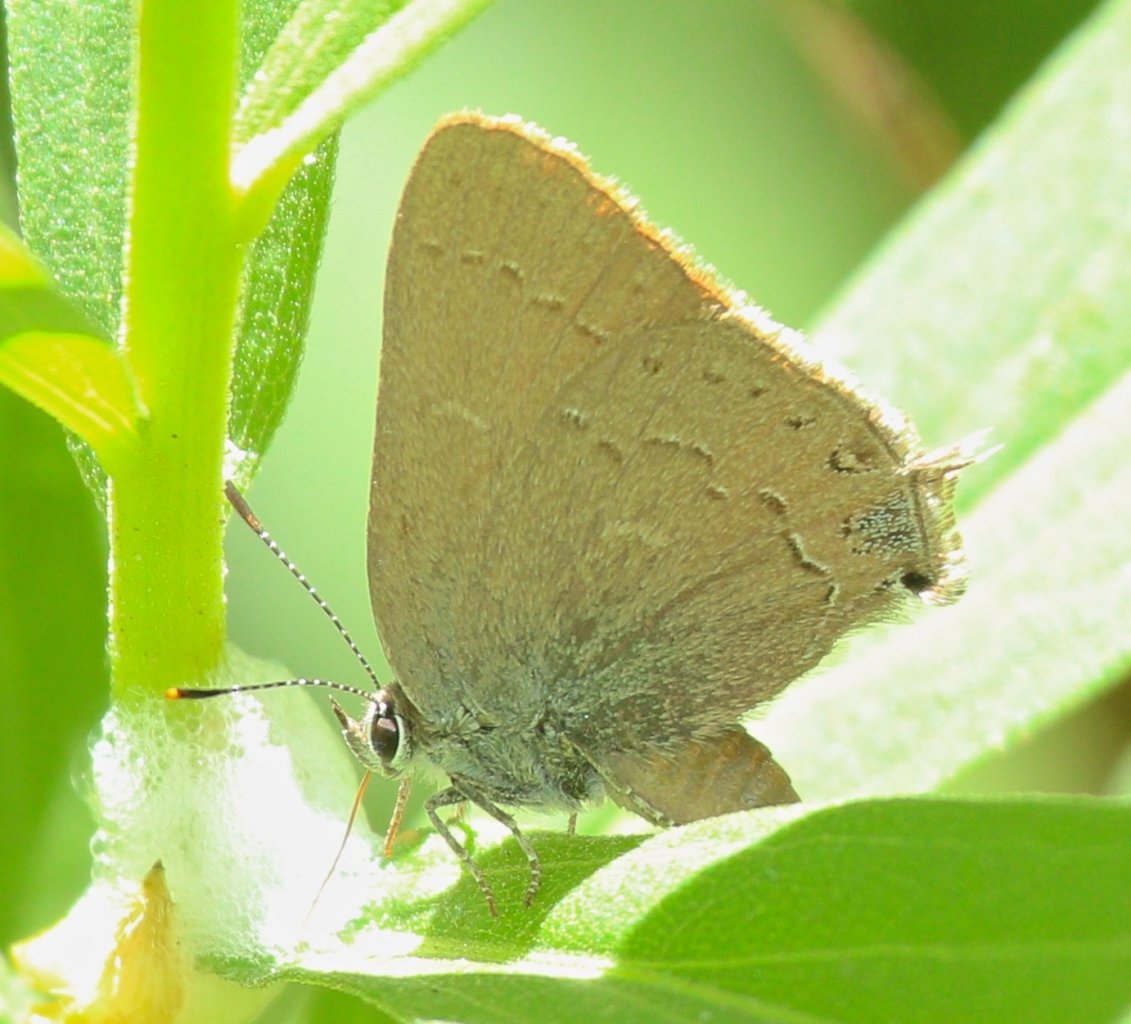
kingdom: Animalia
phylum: Arthropoda
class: Insecta
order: Lepidoptera
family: Lycaenidae
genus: Strymon
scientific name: Strymon saepium
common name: Hedgerow Hairstreak
